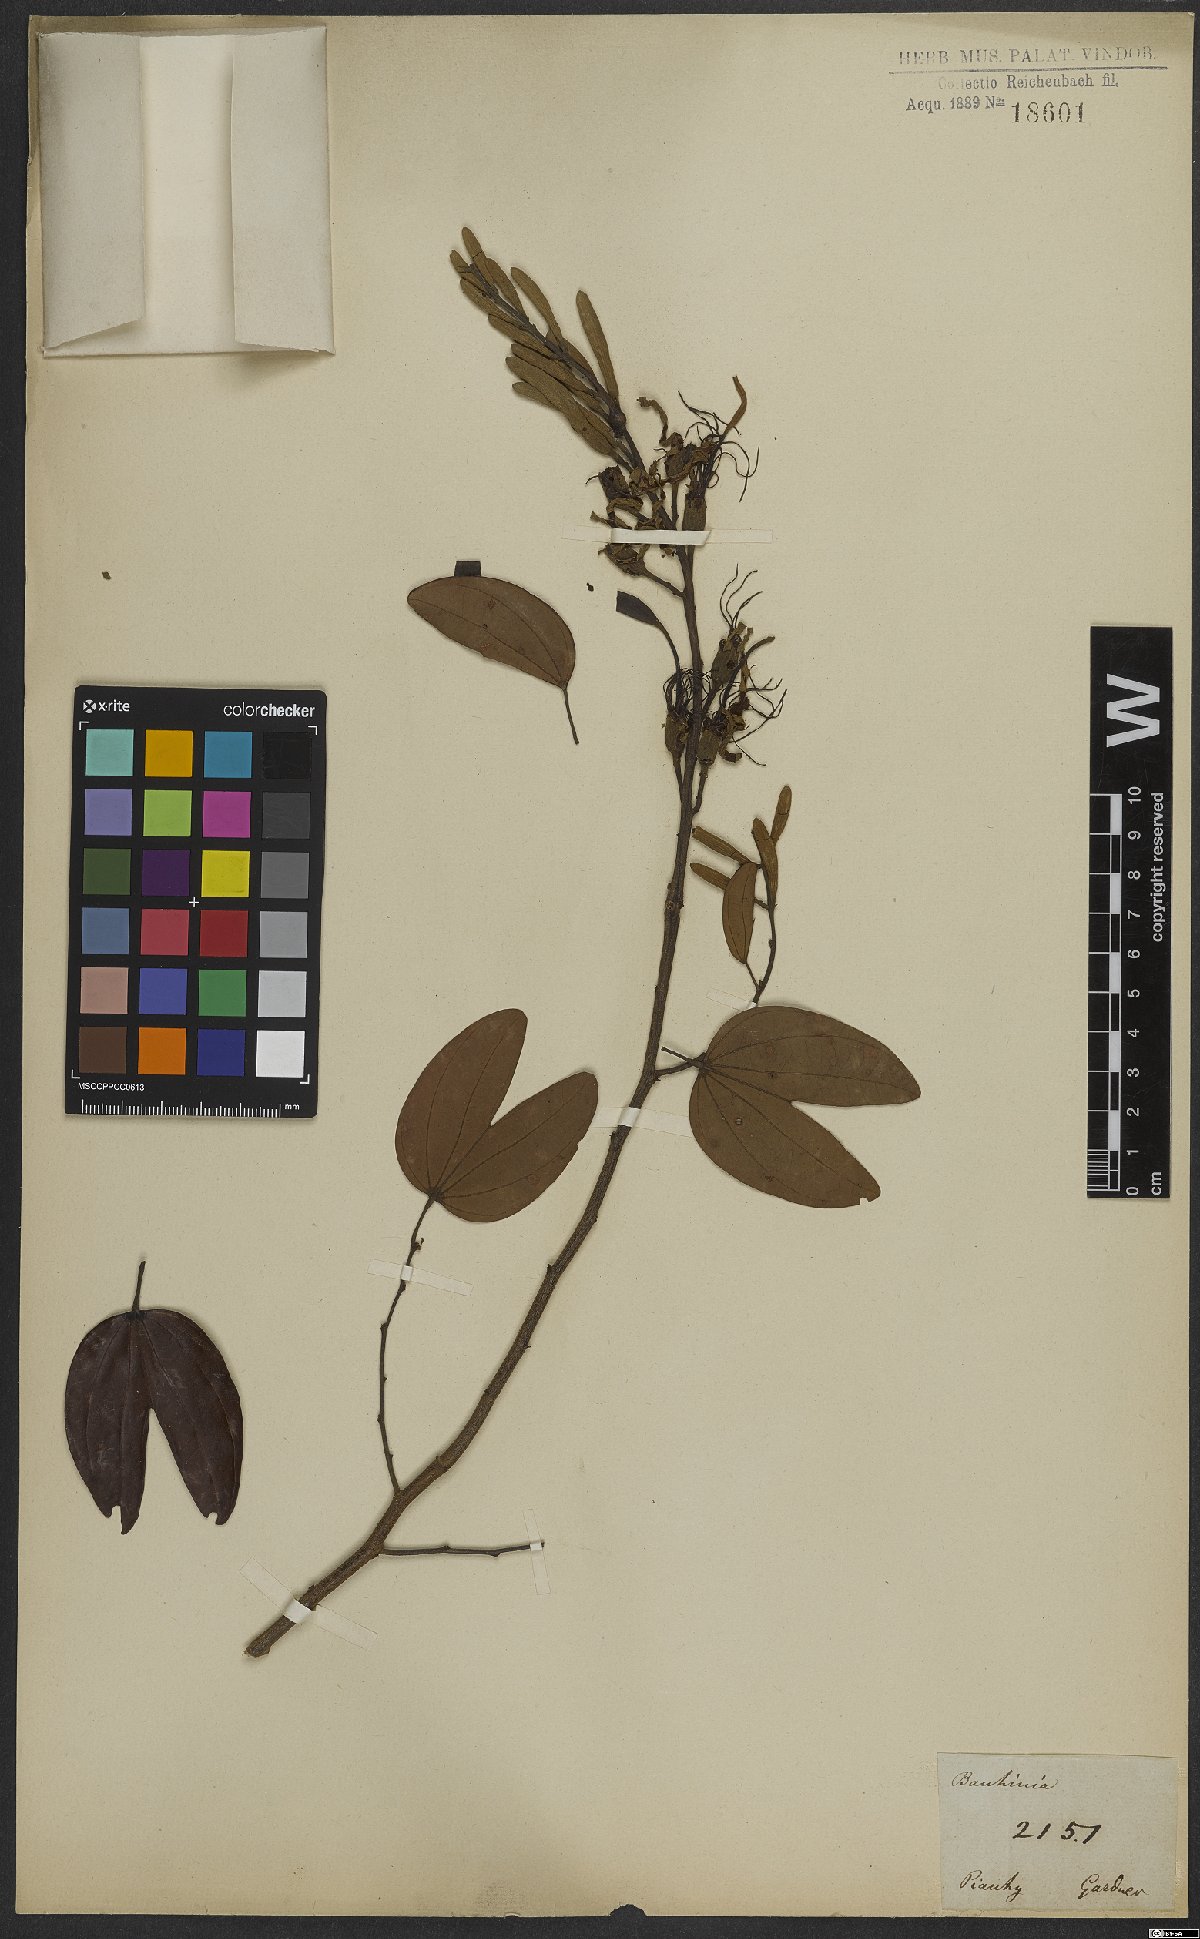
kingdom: Plantae
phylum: Tracheophyta
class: Magnoliopsida
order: Fabales
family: Fabaceae
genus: Bauhinia
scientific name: Bauhinia ungulata
